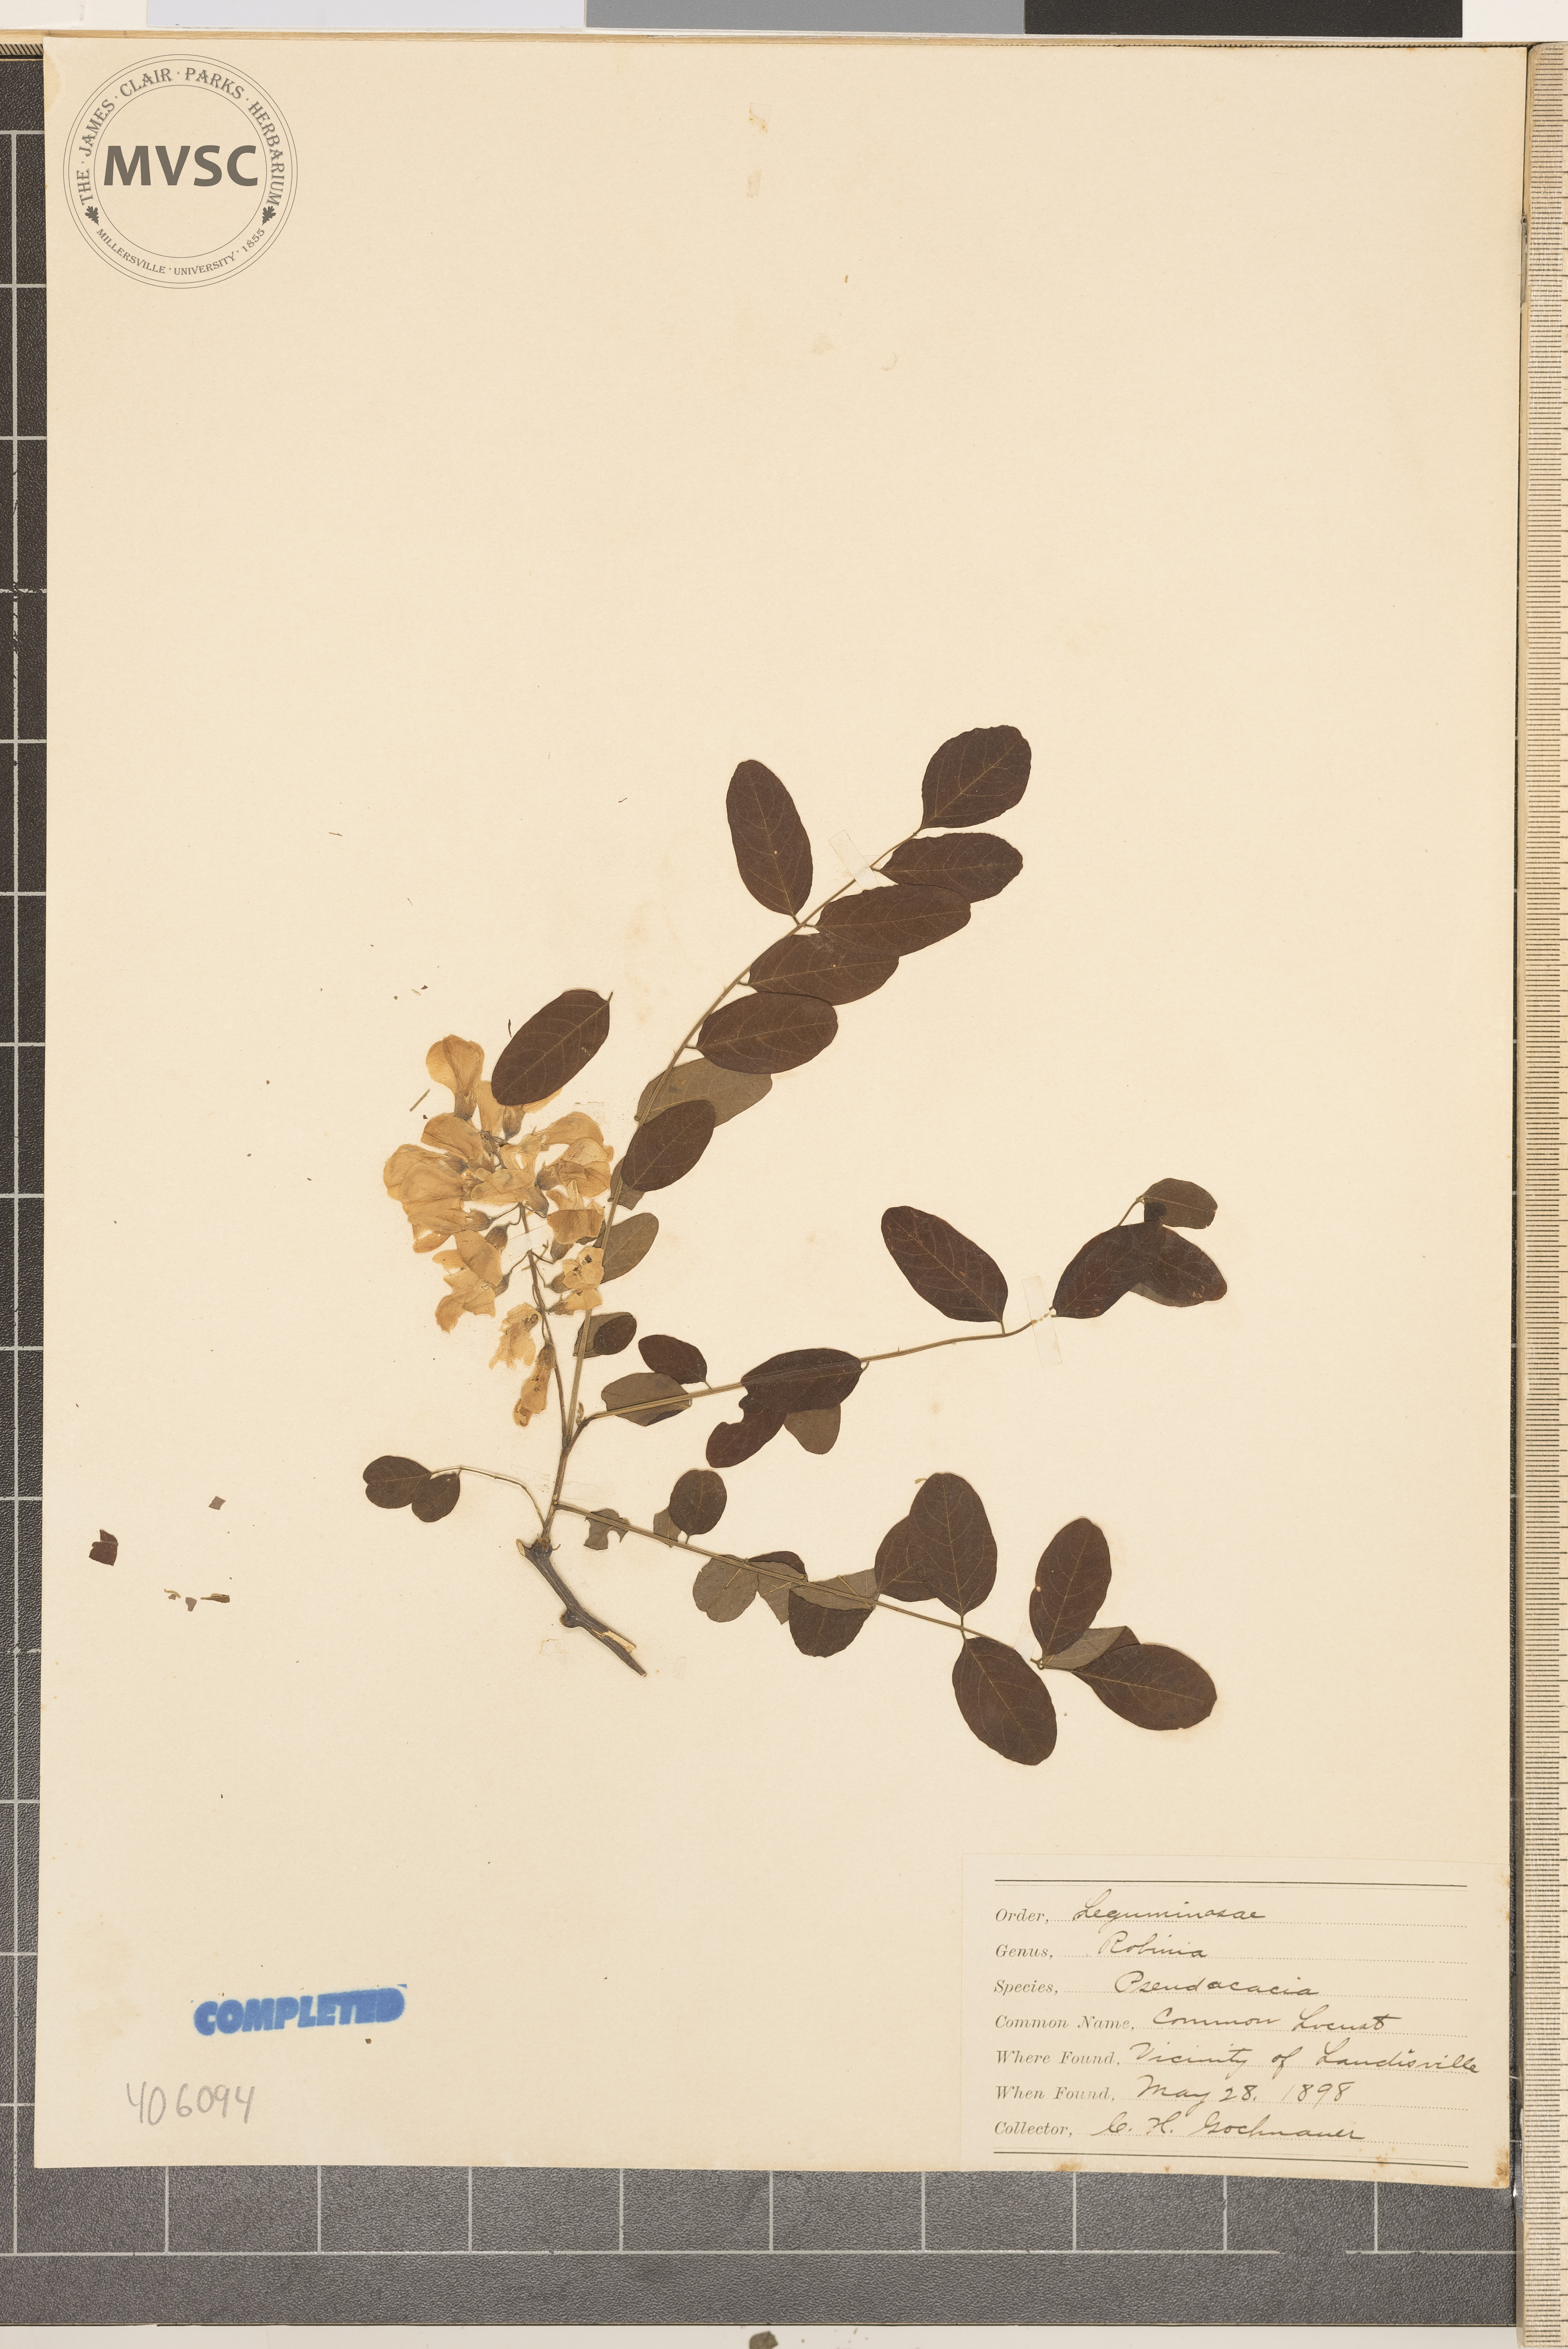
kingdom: Plantae
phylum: Tracheophyta
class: Magnoliopsida
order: Fabales
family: Fabaceae
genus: Robinia
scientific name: Robinia pseudoacacia
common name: Black locust
